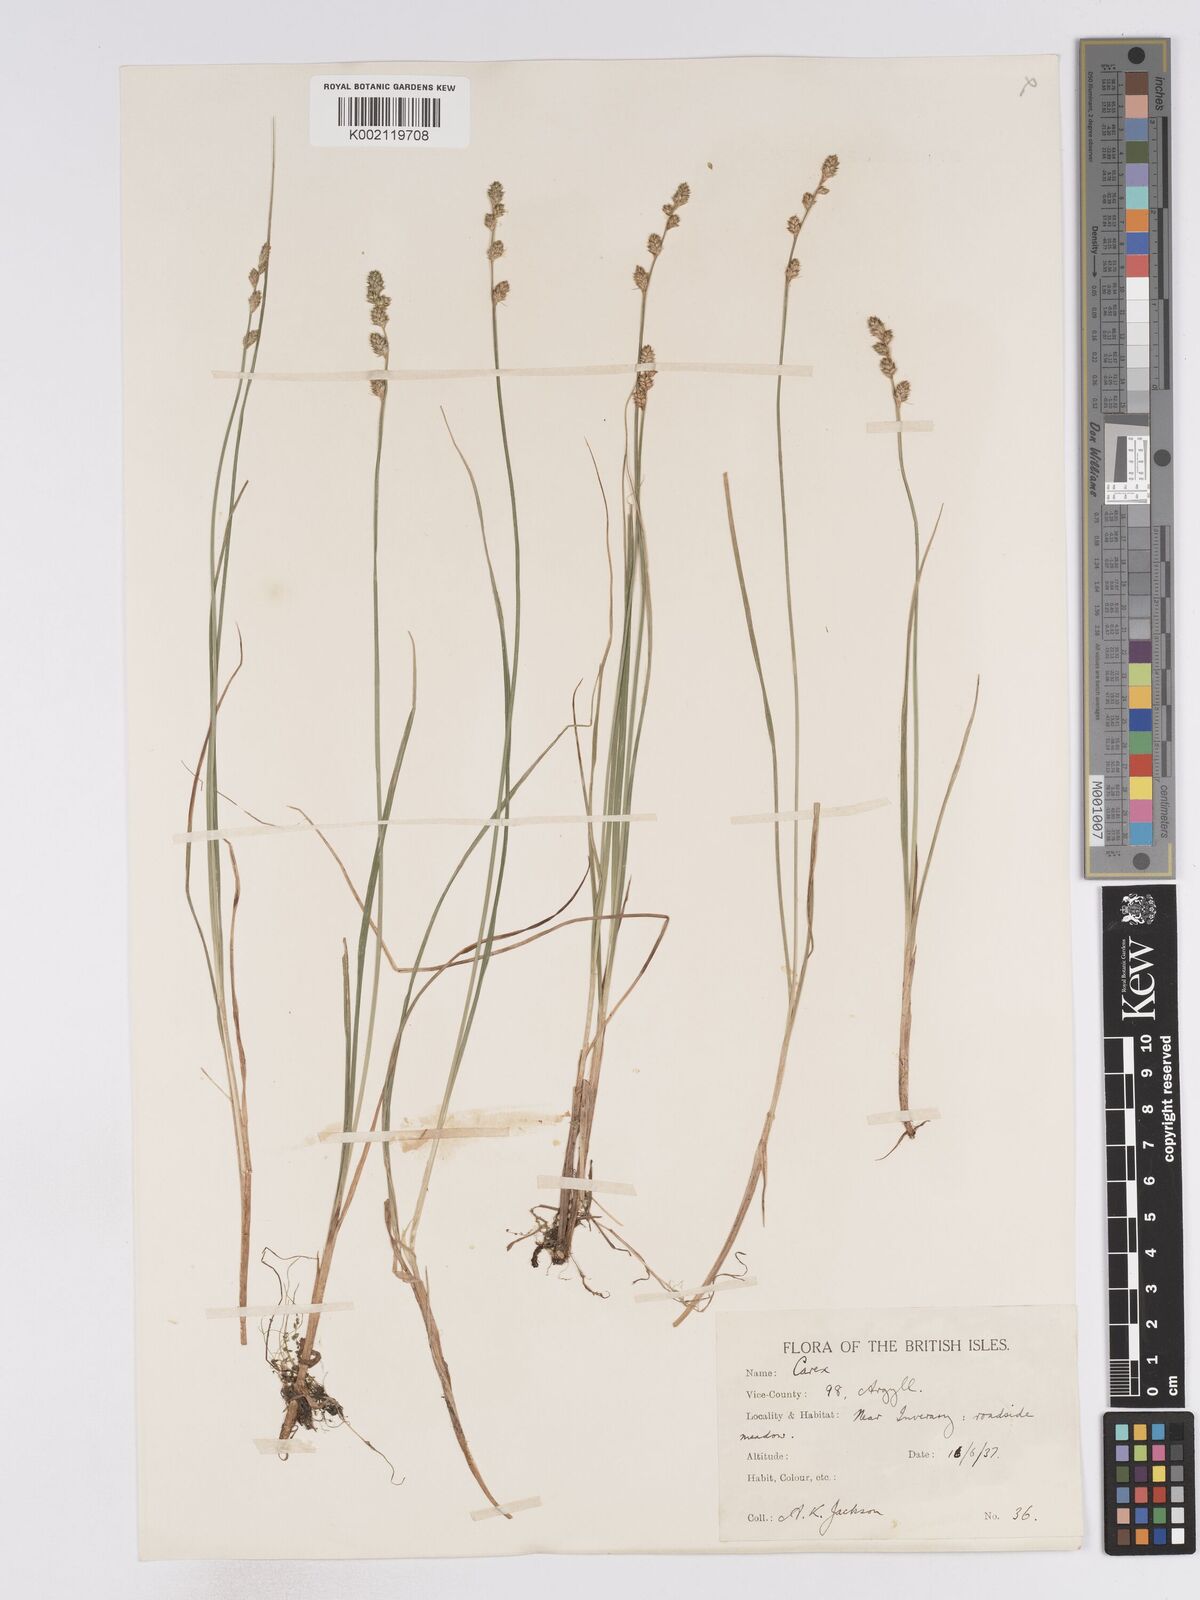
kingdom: Plantae
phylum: Tracheophyta
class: Liliopsida
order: Poales
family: Cyperaceae
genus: Carex
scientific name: Carex curta
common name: White sedge
